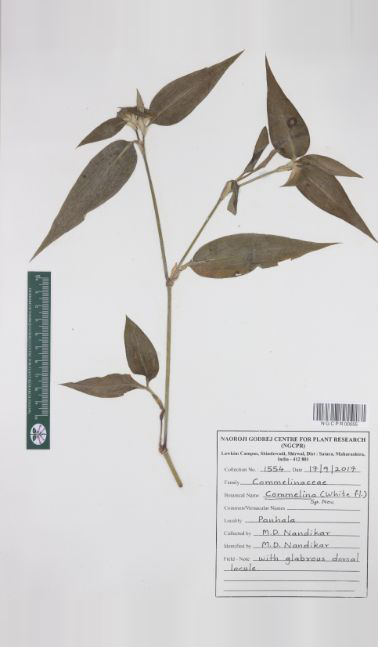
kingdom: Plantae
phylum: Tracheophyta
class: Liliopsida
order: Commelinales
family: Commelinaceae
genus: Commelina
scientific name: Commelina undulata
